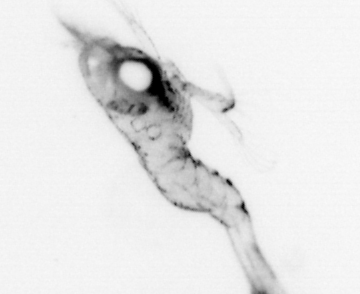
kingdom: Animalia
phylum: Arthropoda
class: Malacostraca
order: Decapoda
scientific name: Decapoda
